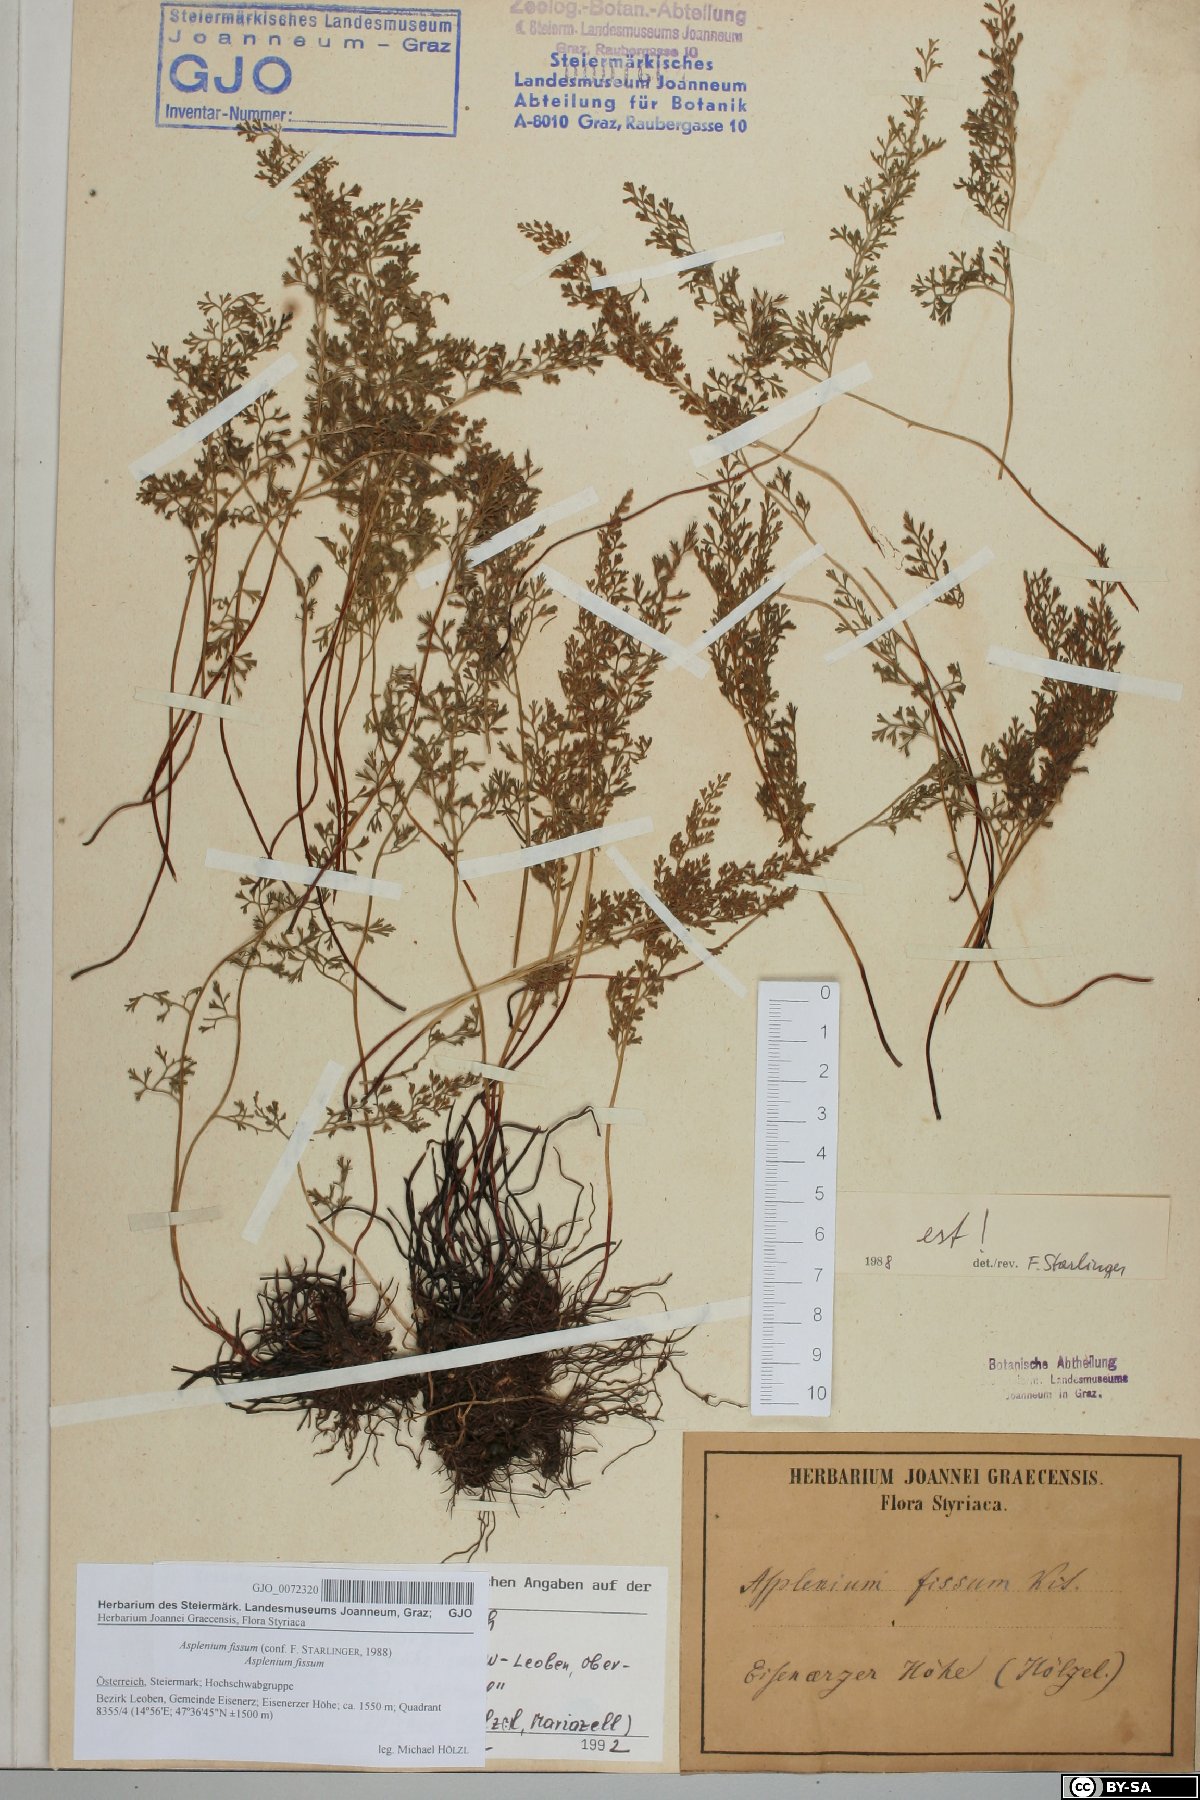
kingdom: Plantae
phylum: Tracheophyta
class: Polypodiopsida
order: Polypodiales
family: Aspleniaceae
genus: Asplenium
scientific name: Asplenium fissum
